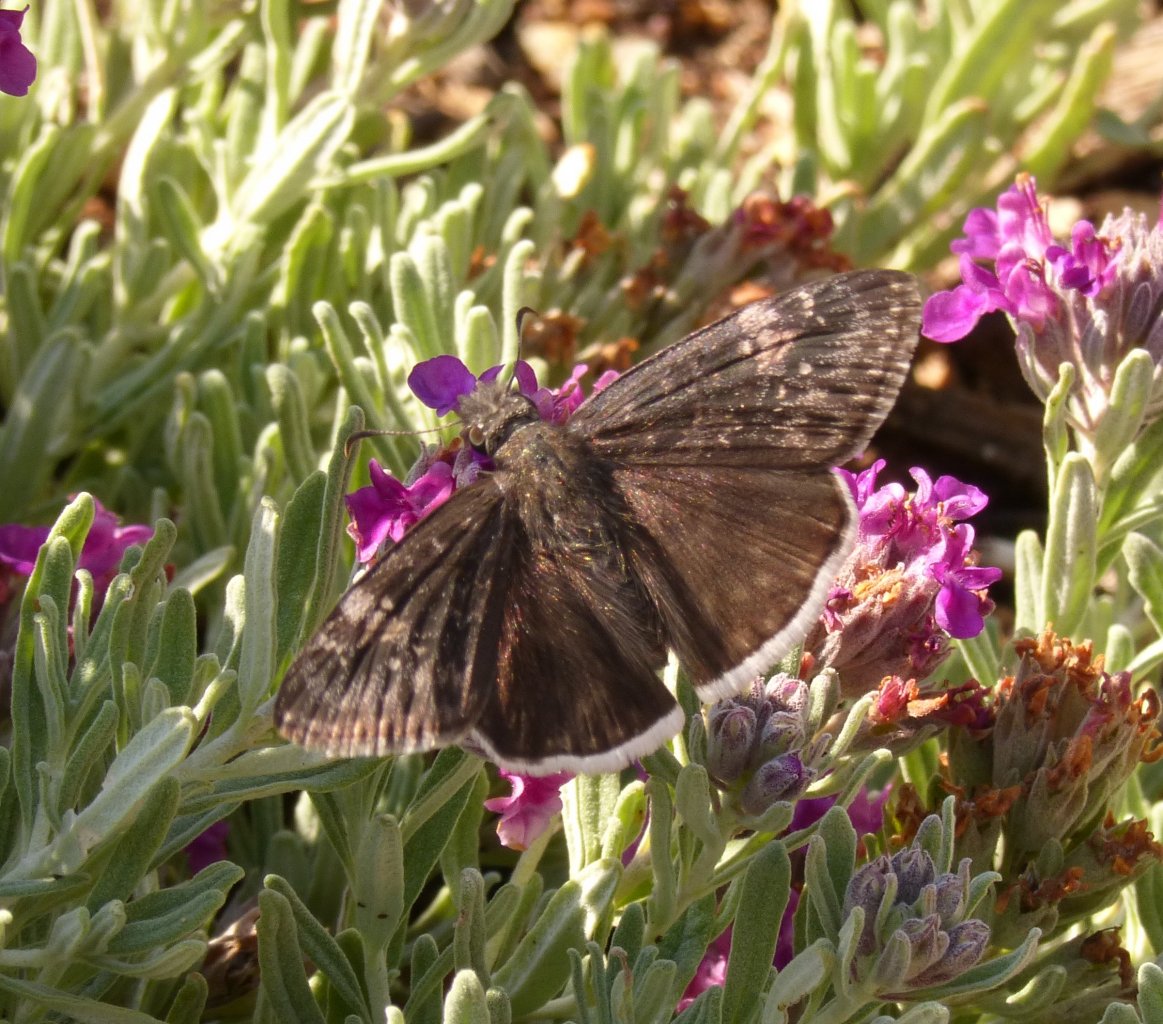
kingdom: Animalia
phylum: Arthropoda
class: Insecta
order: Lepidoptera
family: Hesperiidae
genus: Erynnis
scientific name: Erynnis funeralis
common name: Funereal Duskywing
